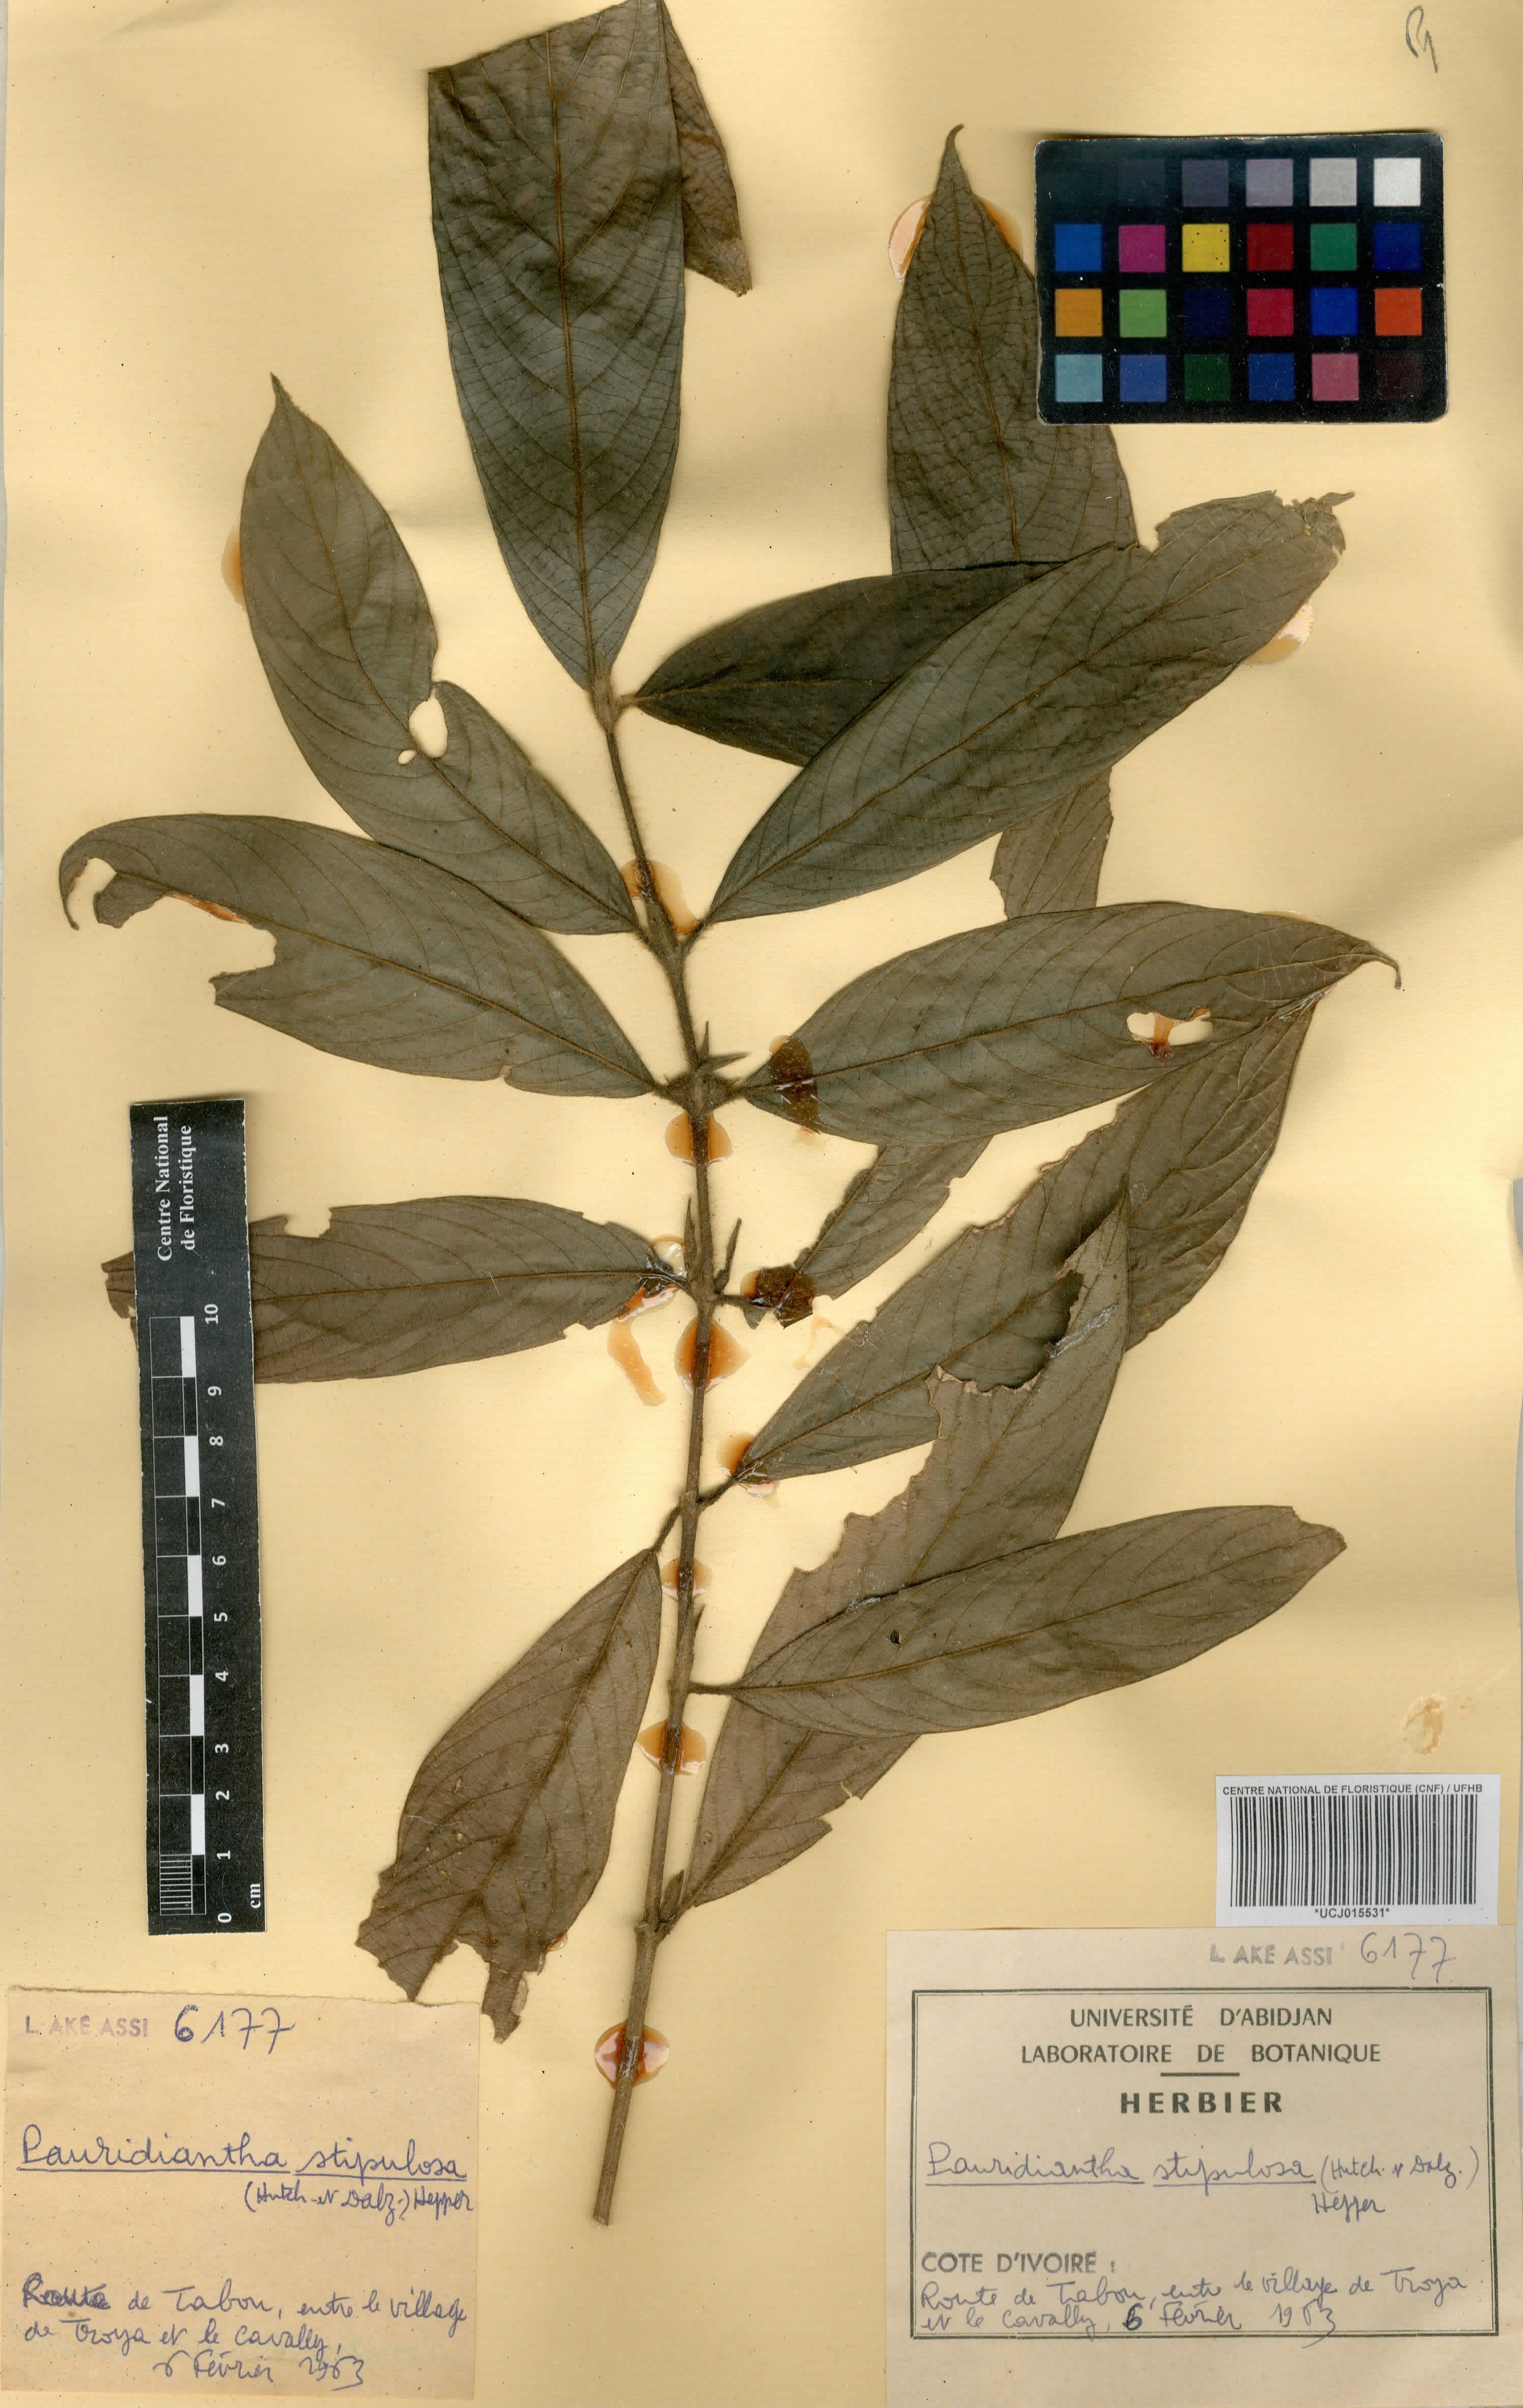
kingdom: Plantae
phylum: Tracheophyta
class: Magnoliopsida
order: Gentianales
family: Rubiaceae
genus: Pauridiantha
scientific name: Pauridiantha stipulosa
